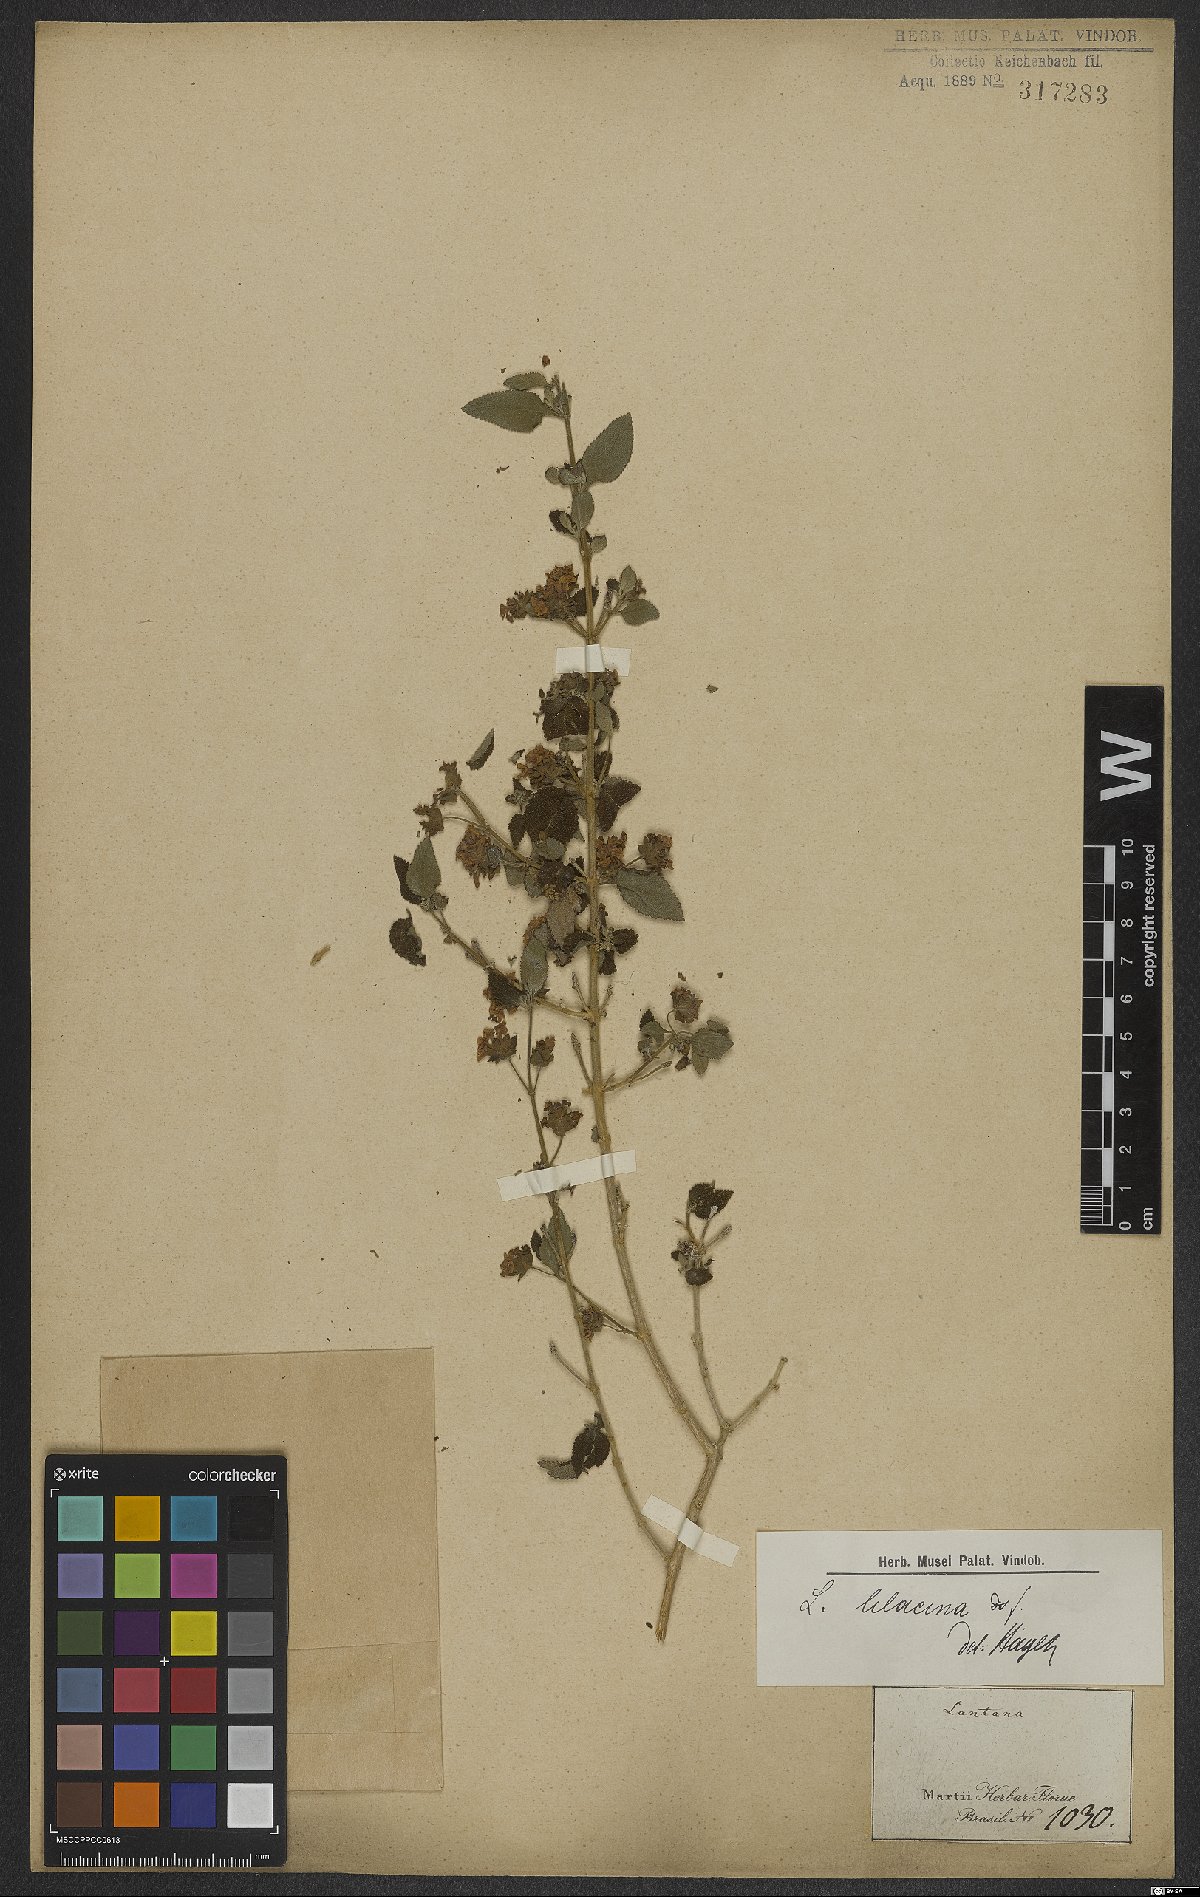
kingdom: Plantae
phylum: Tracheophyta
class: Magnoliopsida
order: Lamiales
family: Verbenaceae
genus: Lantana
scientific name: Lantana fucata
